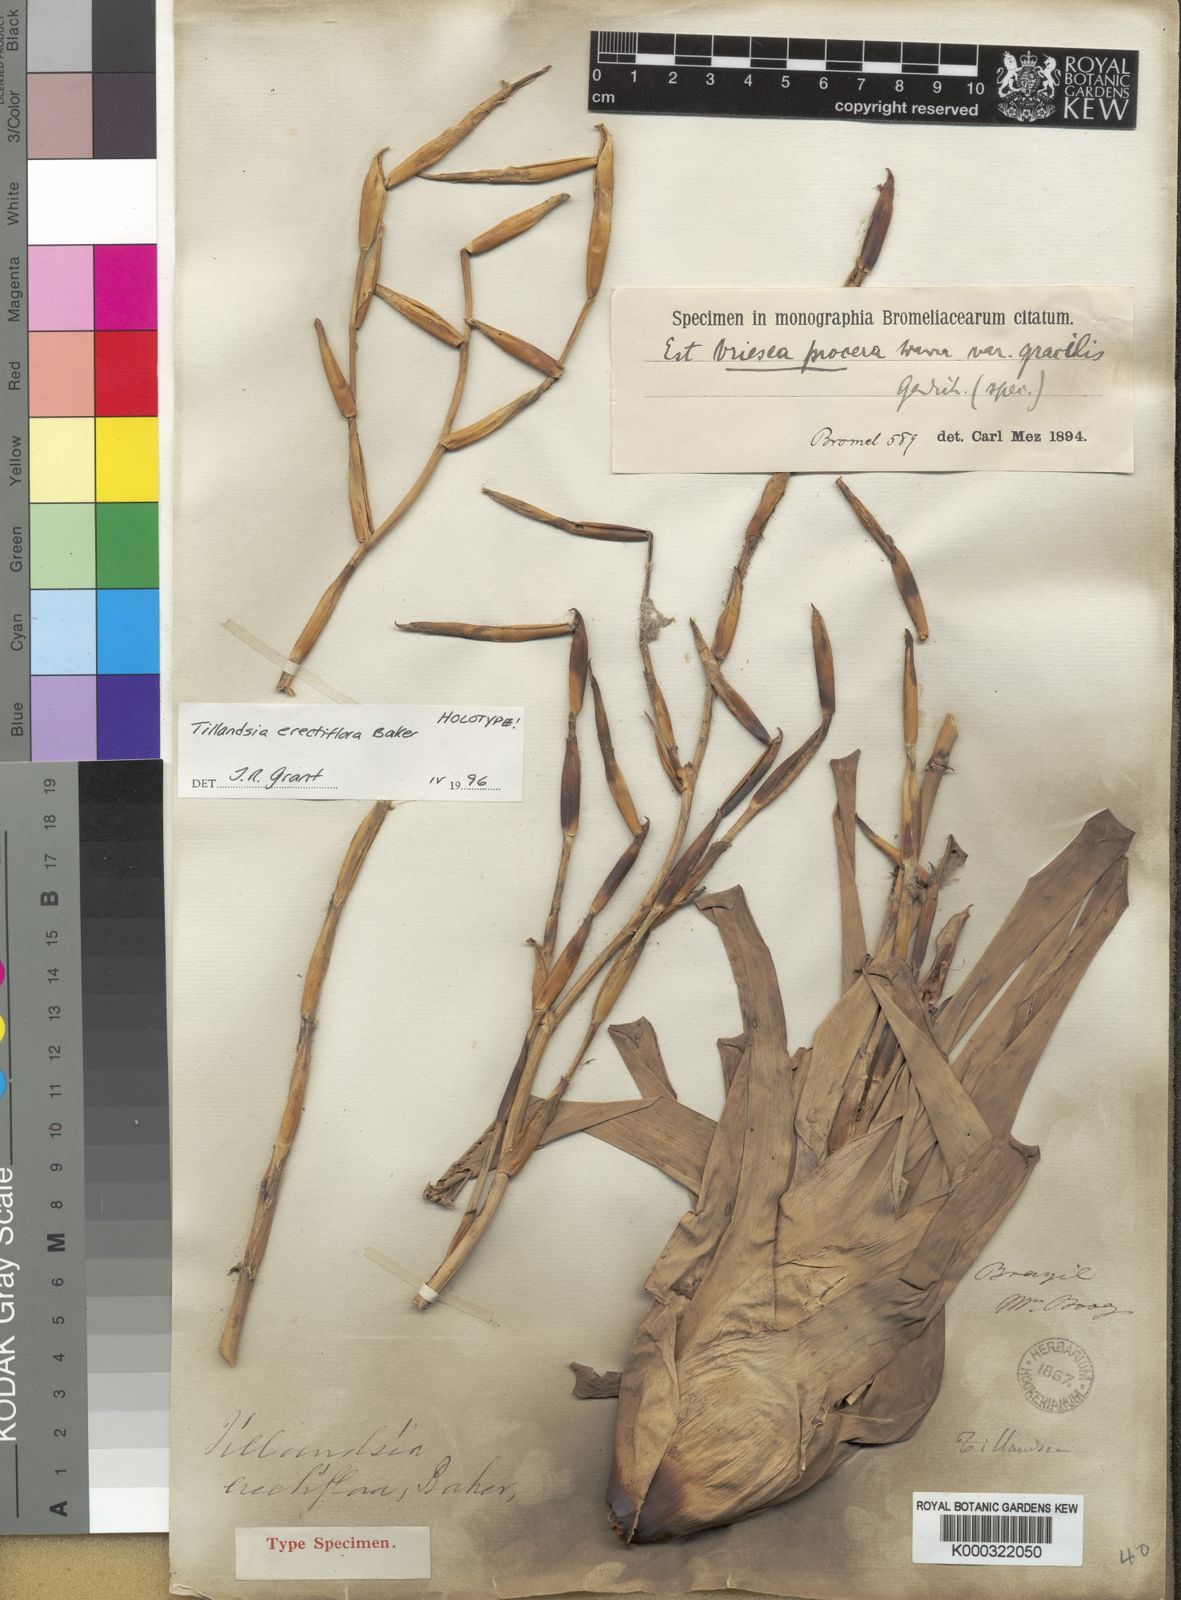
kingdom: Plantae
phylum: Tracheophyta
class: Liliopsida
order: Poales
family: Bromeliaceae
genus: Vriesea
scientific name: Vriesea procera
